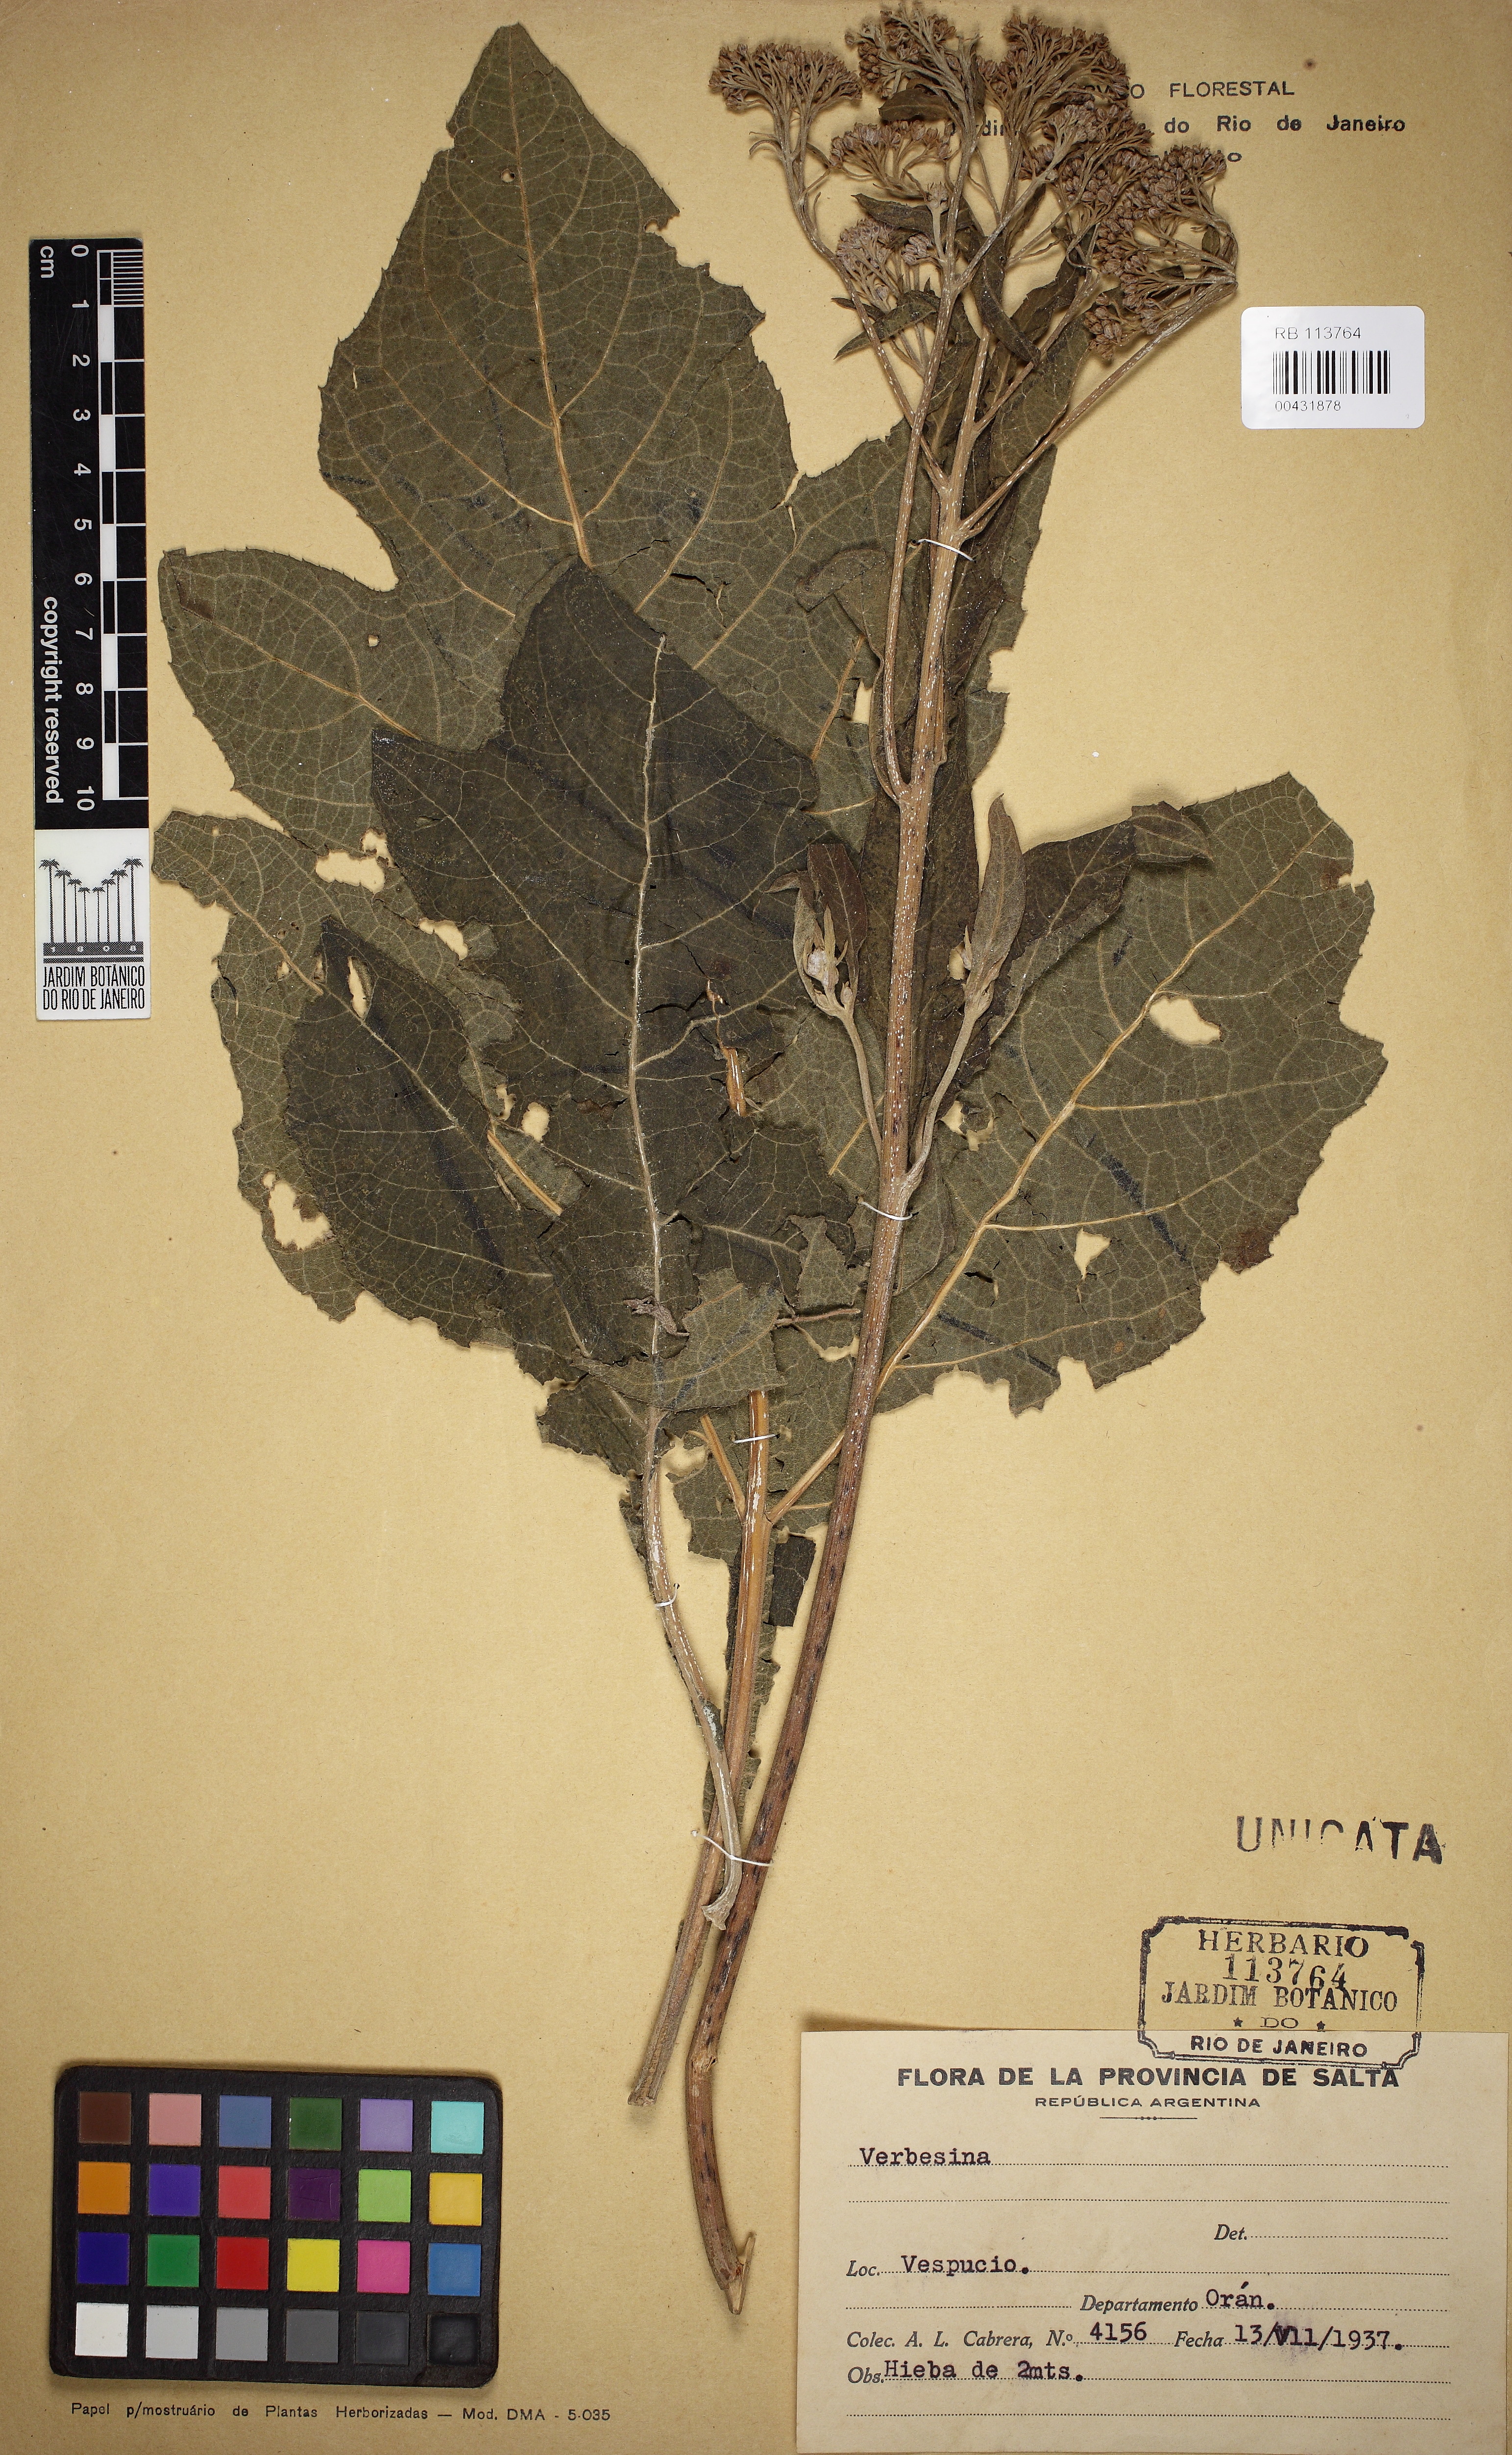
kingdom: Plantae
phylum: Tracheophyta
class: Magnoliopsida
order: Asterales
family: Asteraceae
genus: Verbesina
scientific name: Verbesina
